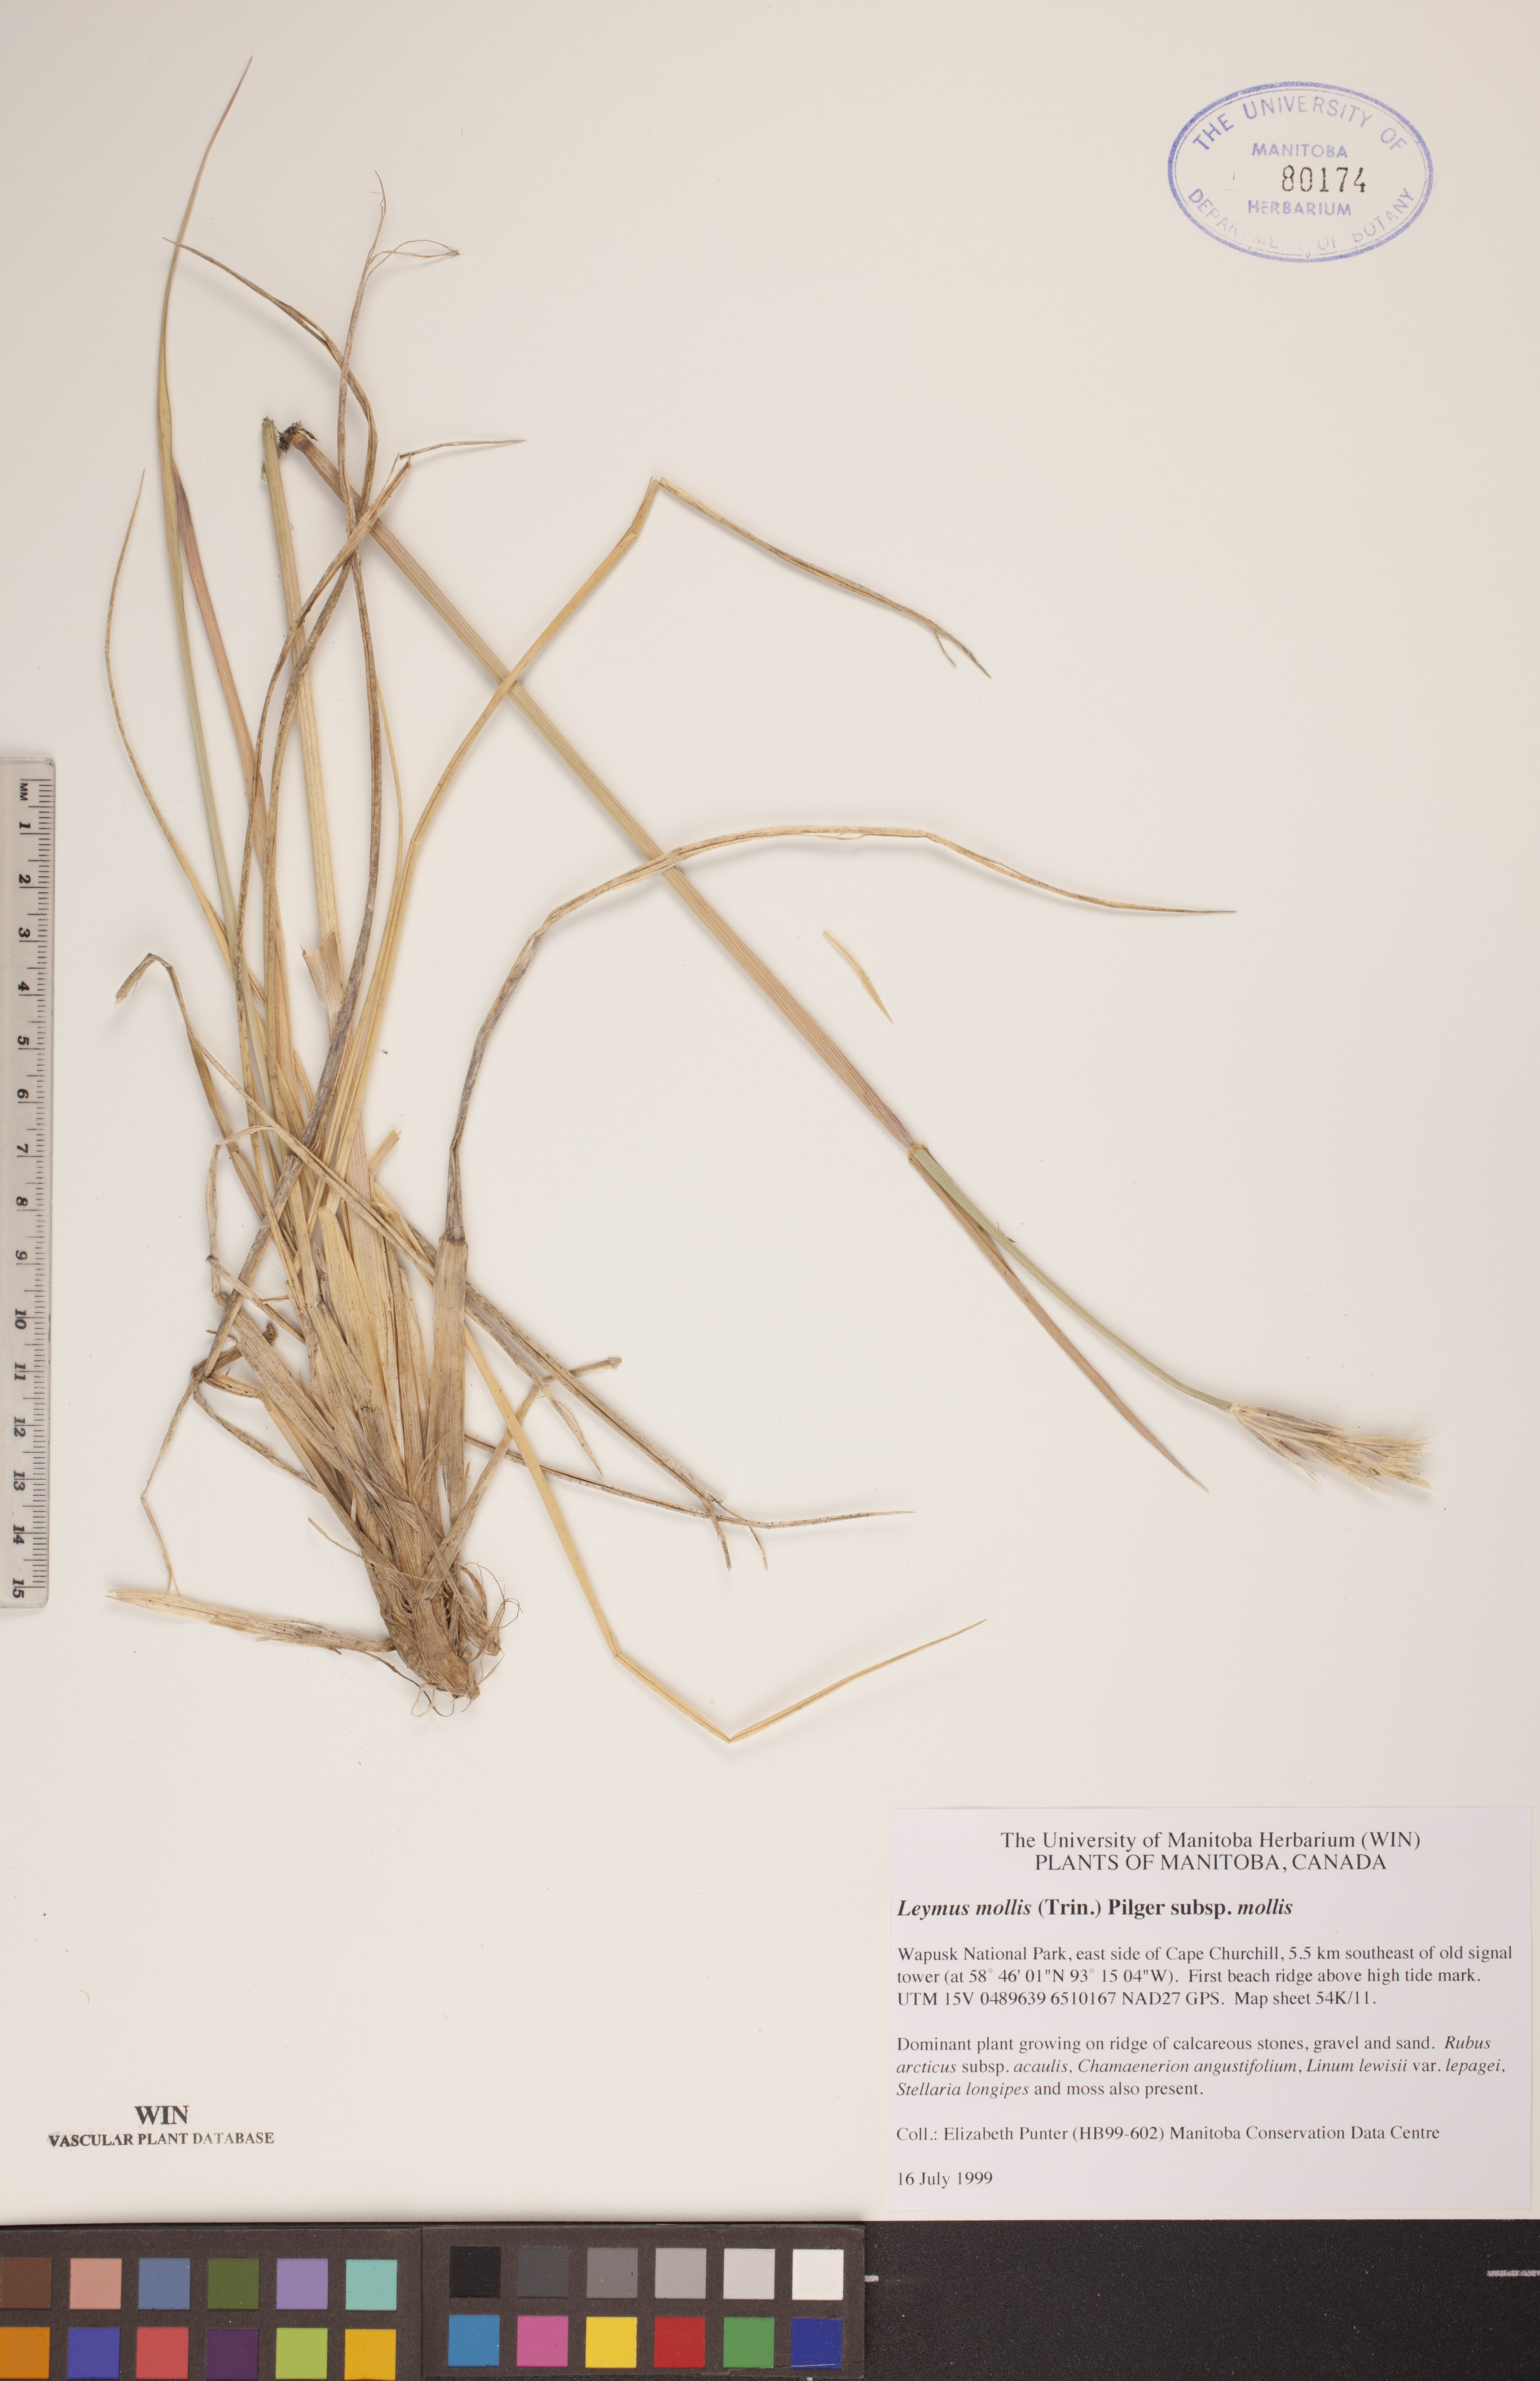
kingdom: Plantae
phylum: Tracheophyta
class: Liliopsida
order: Poales
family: Poaceae
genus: Leymus
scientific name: Leymus mollis
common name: American dune grass
